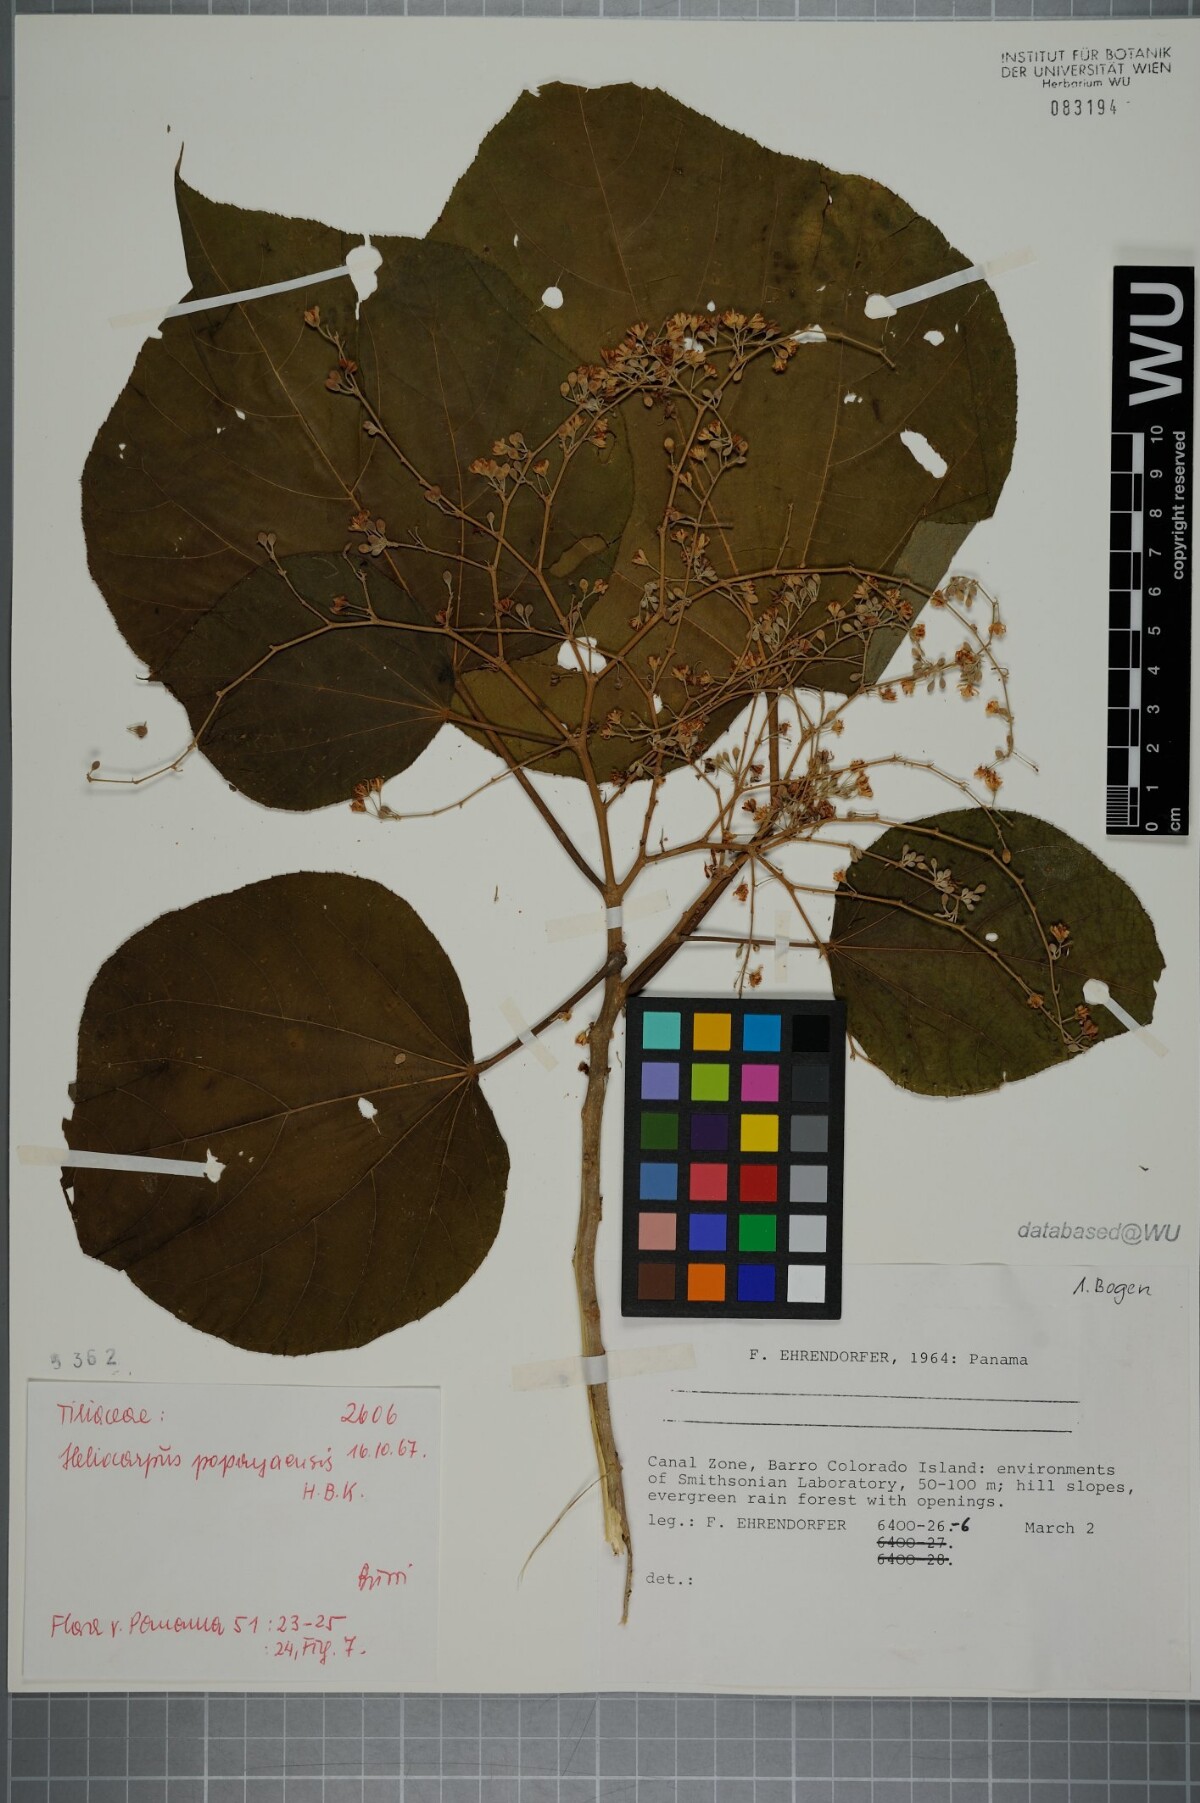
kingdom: Plantae
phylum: Tracheophyta
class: Magnoliopsida
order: Malvales
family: Malvaceae
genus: Heliocarpus
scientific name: Heliocarpus americanus
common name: White moho
